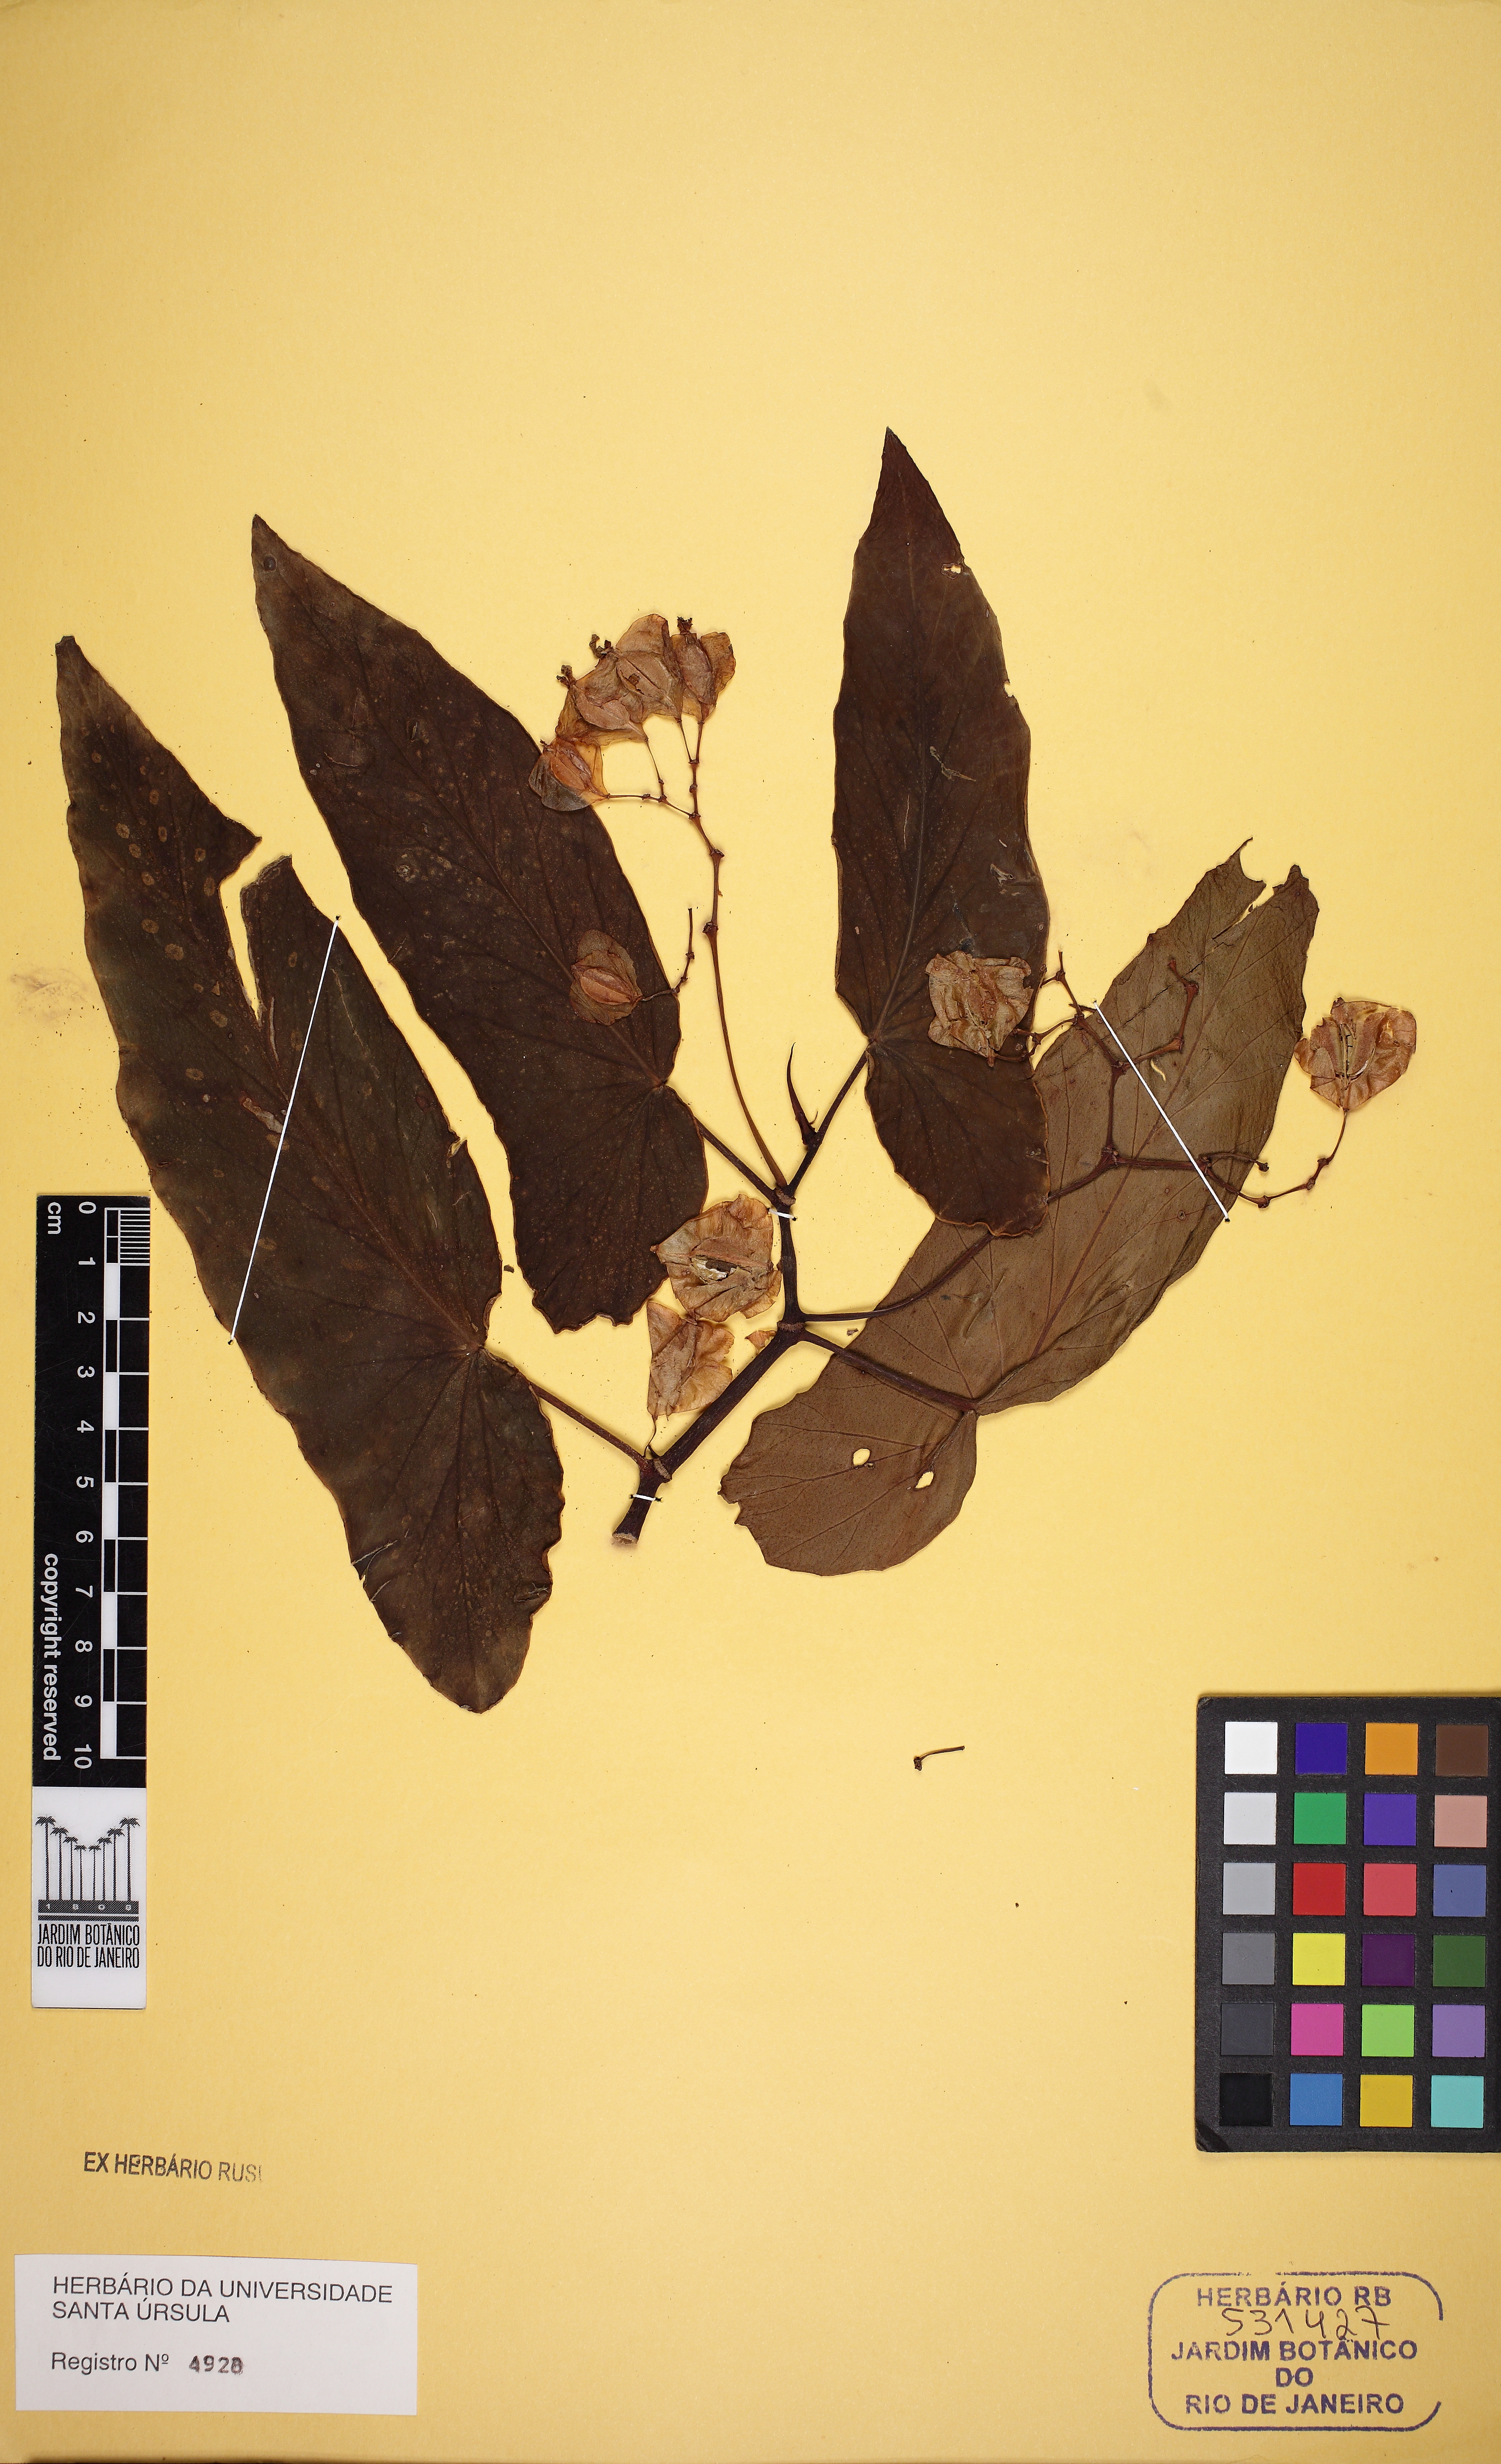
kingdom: Plantae
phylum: Tracheophyta
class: Magnoliopsida
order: Cucurbitales
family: Begoniaceae
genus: Begonia
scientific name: Begonia maculata
